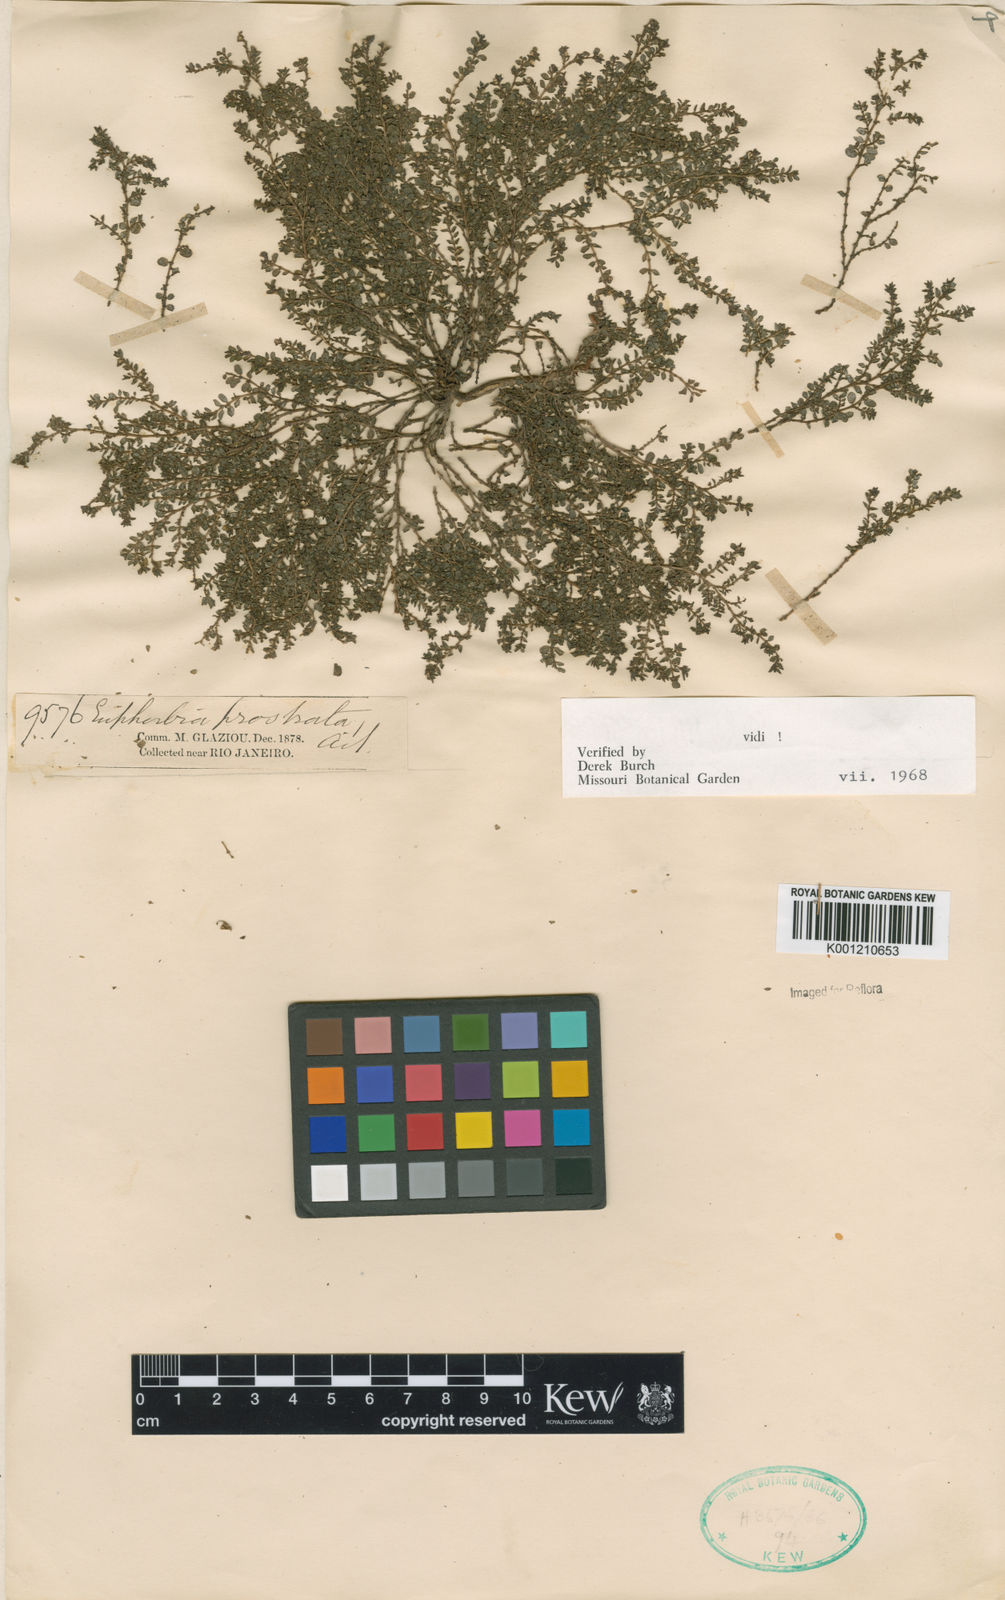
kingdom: Plantae
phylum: Tracheophyta
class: Magnoliopsida
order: Malpighiales
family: Euphorbiaceae
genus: Euphorbia
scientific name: Euphorbia prostrata
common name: Prostrate sandmat
